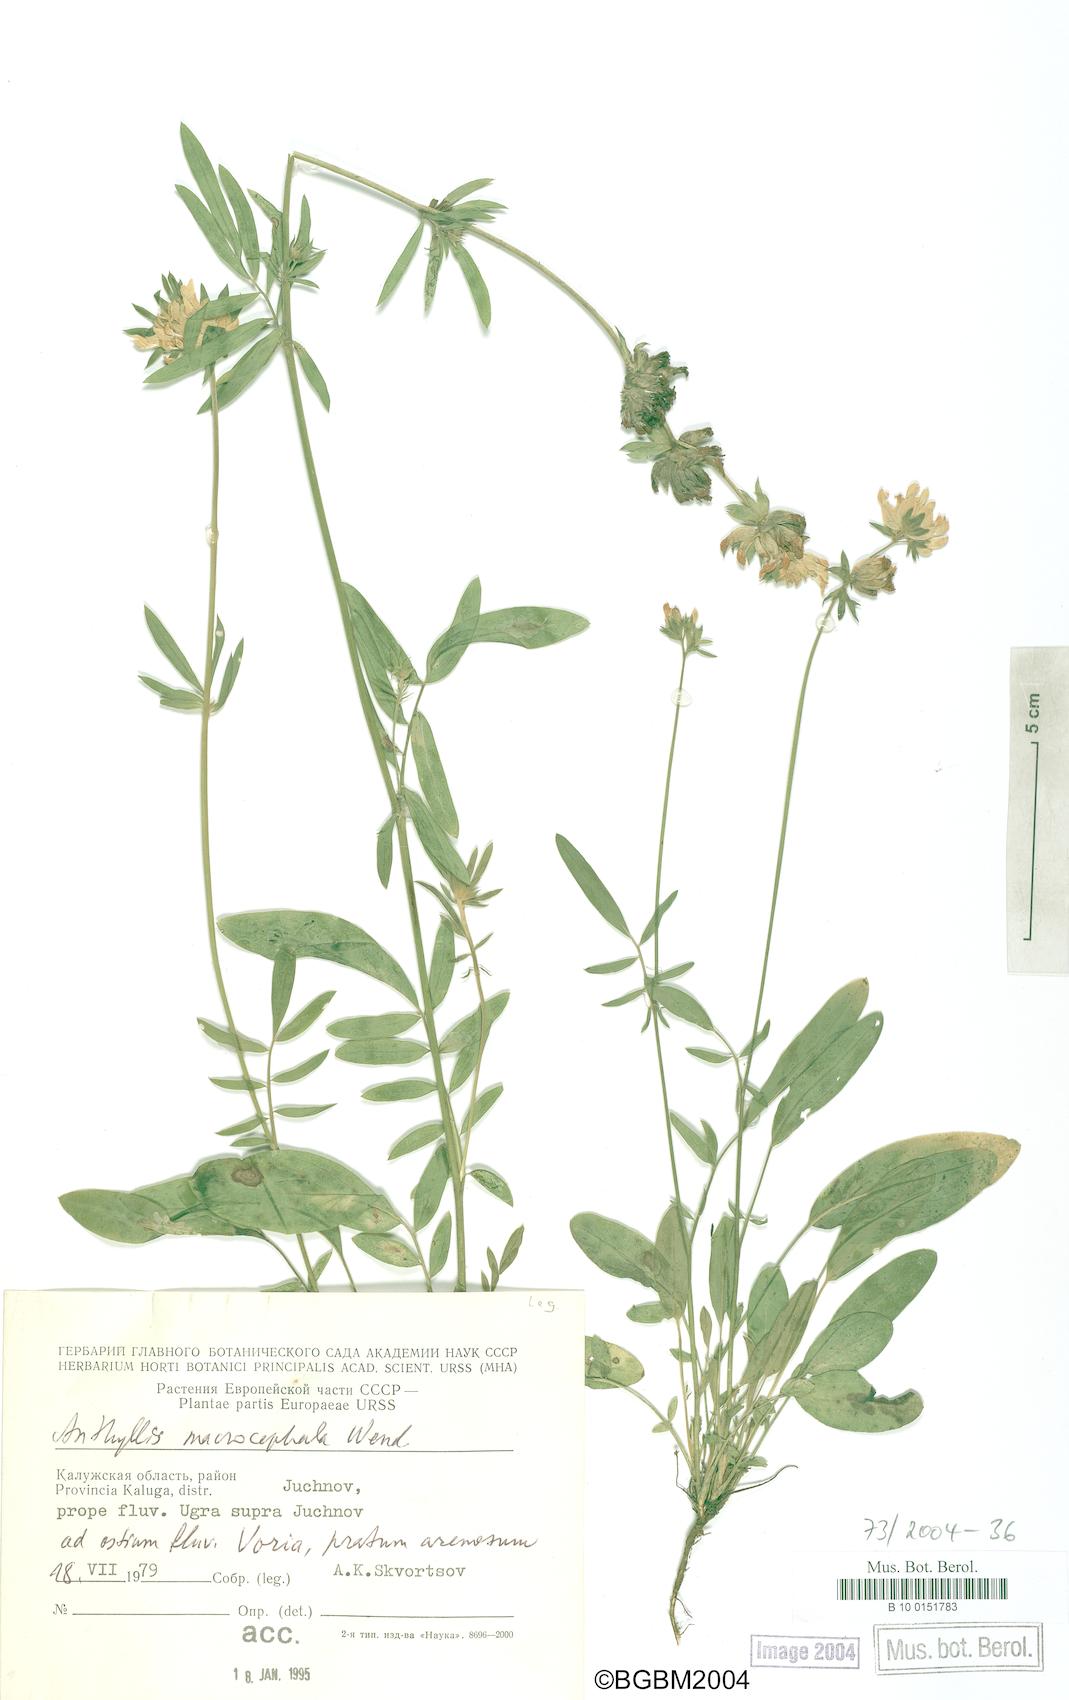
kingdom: Plantae
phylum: Tracheophyta
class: Magnoliopsida
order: Fabales
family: Fabaceae
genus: Anthyllis
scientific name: Anthyllis vulneraria
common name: Kidney vetch
